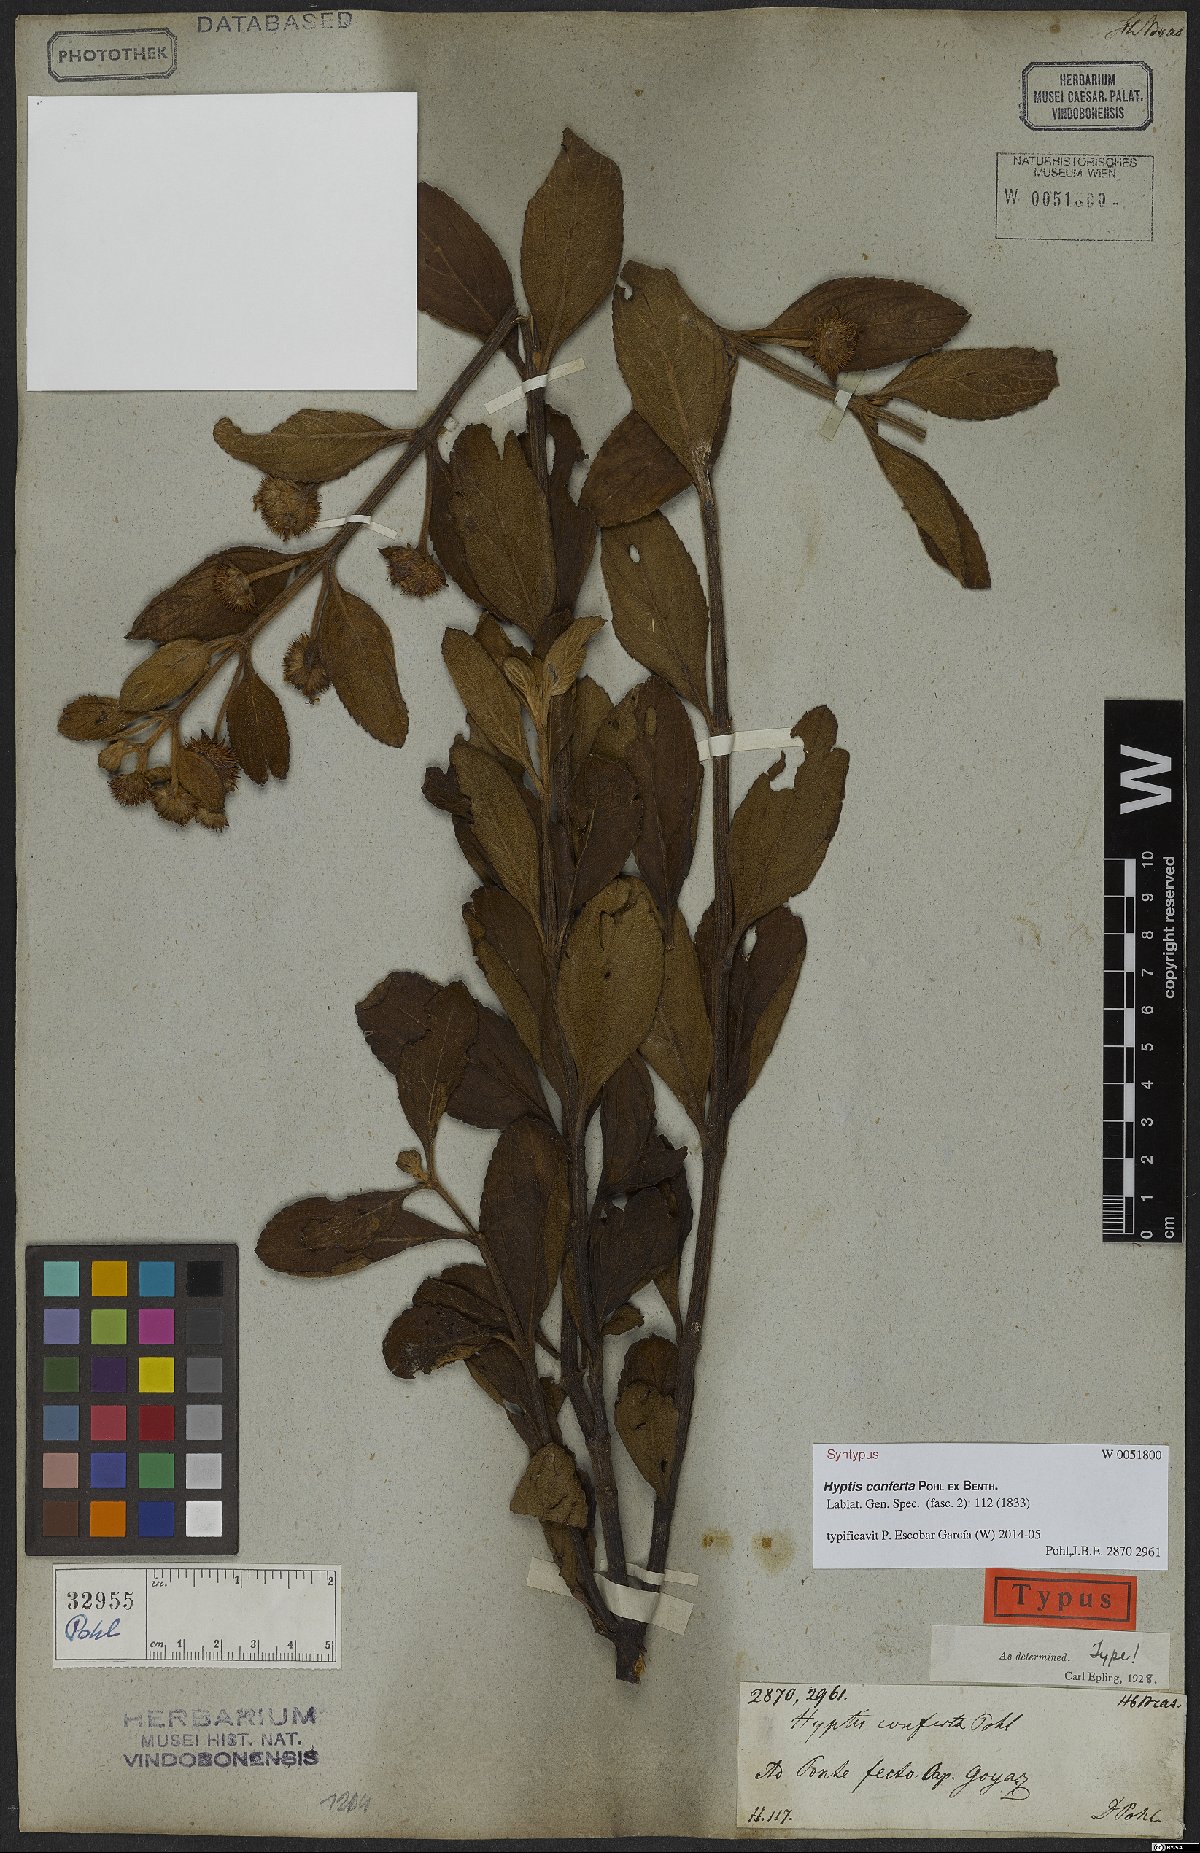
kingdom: Plantae
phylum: Tracheophyta
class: Magnoliopsida
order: Lamiales
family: Lamiaceae
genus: Hyptis
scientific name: Hyptis conferta
